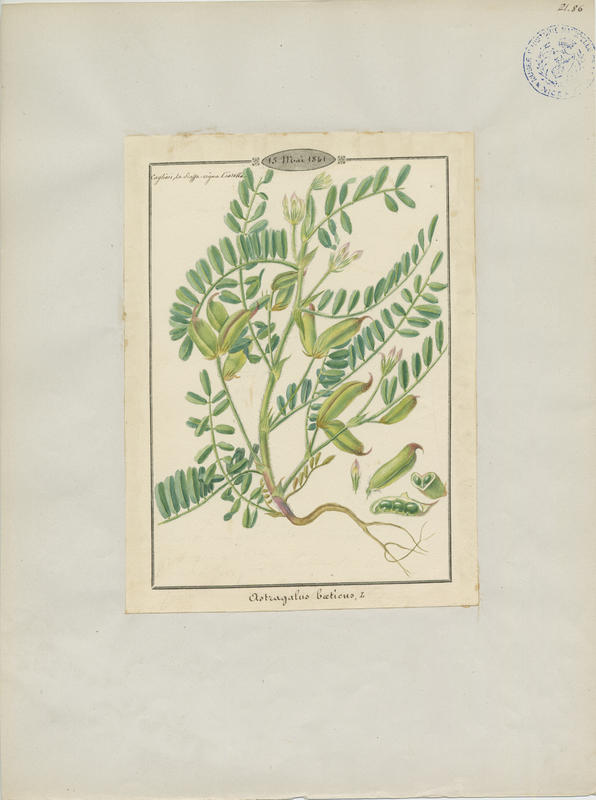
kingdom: Plantae
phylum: Tracheophyta
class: Magnoliopsida
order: Fabales
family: Fabaceae
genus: Astragalus
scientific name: Astragalus hamosus
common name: European milkvetch
